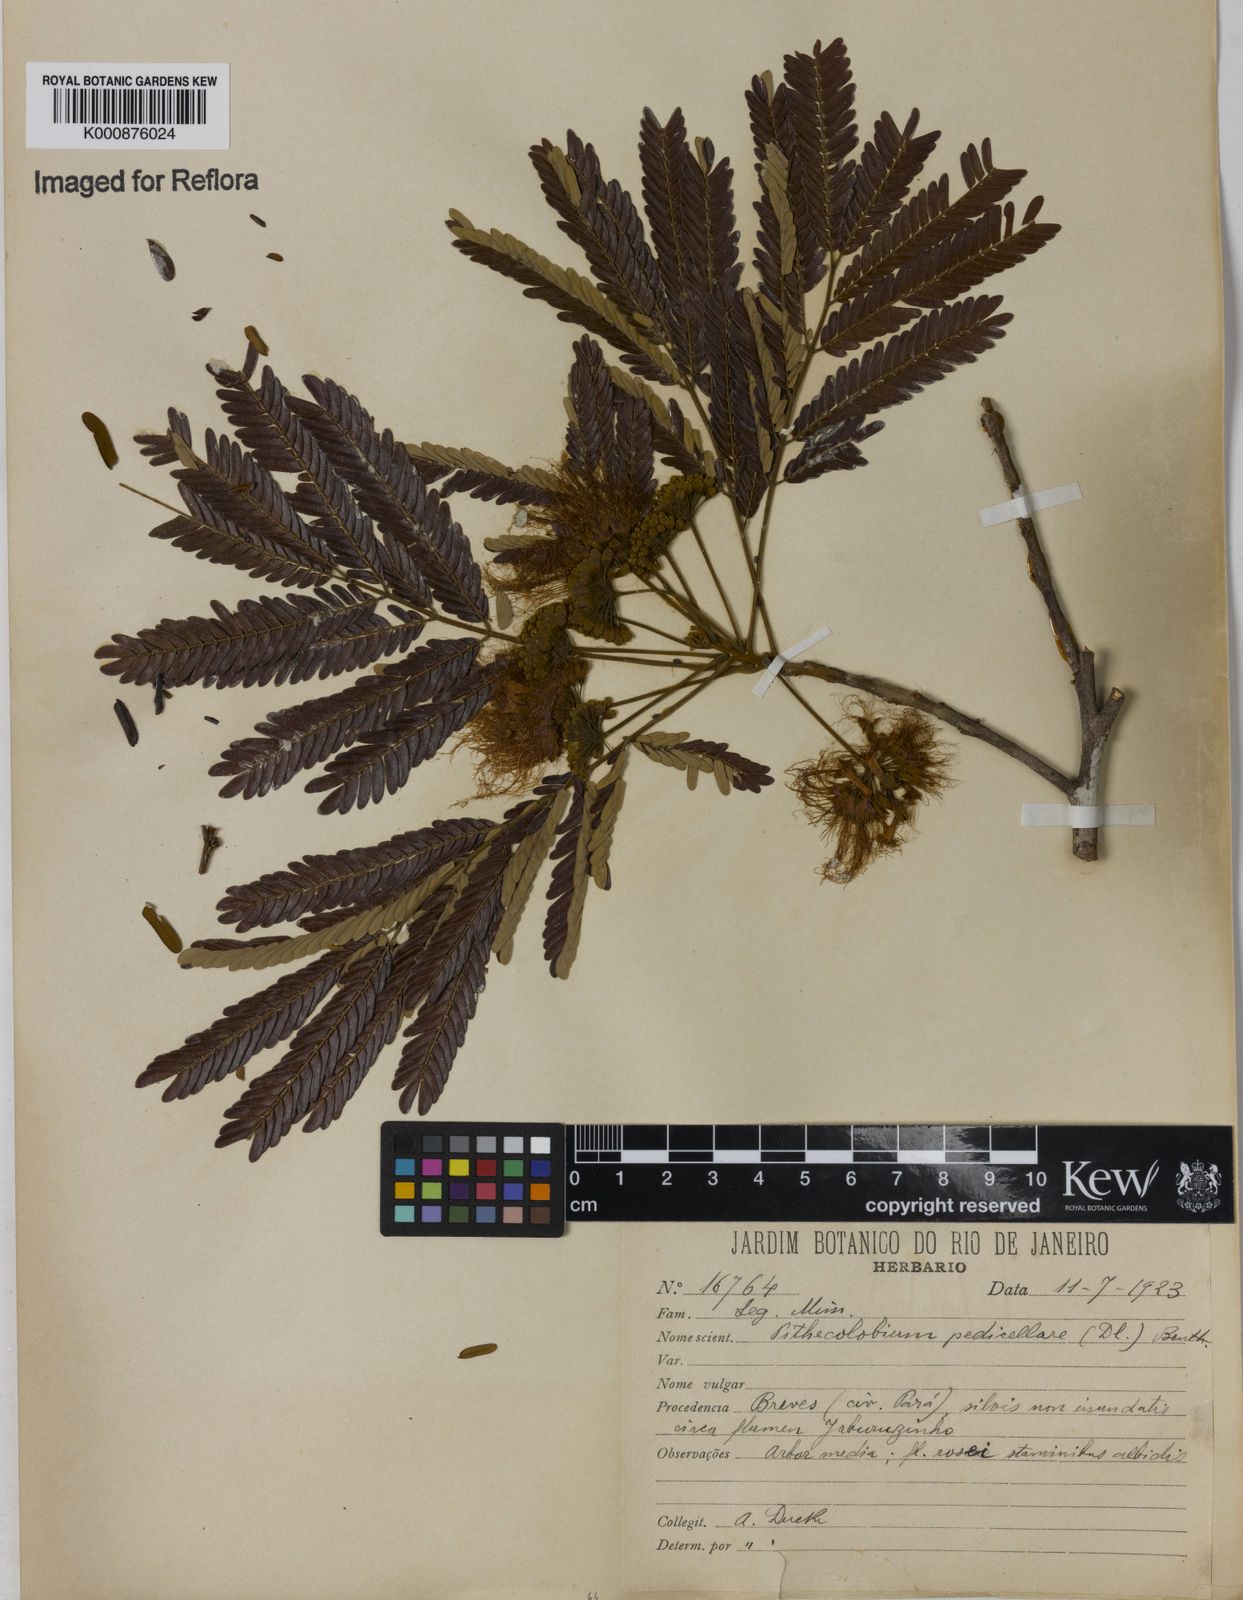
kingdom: Plantae
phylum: Tracheophyta
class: Magnoliopsida
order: Fabales
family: Fabaceae
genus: Balizia
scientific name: Balizia pedicellaris
